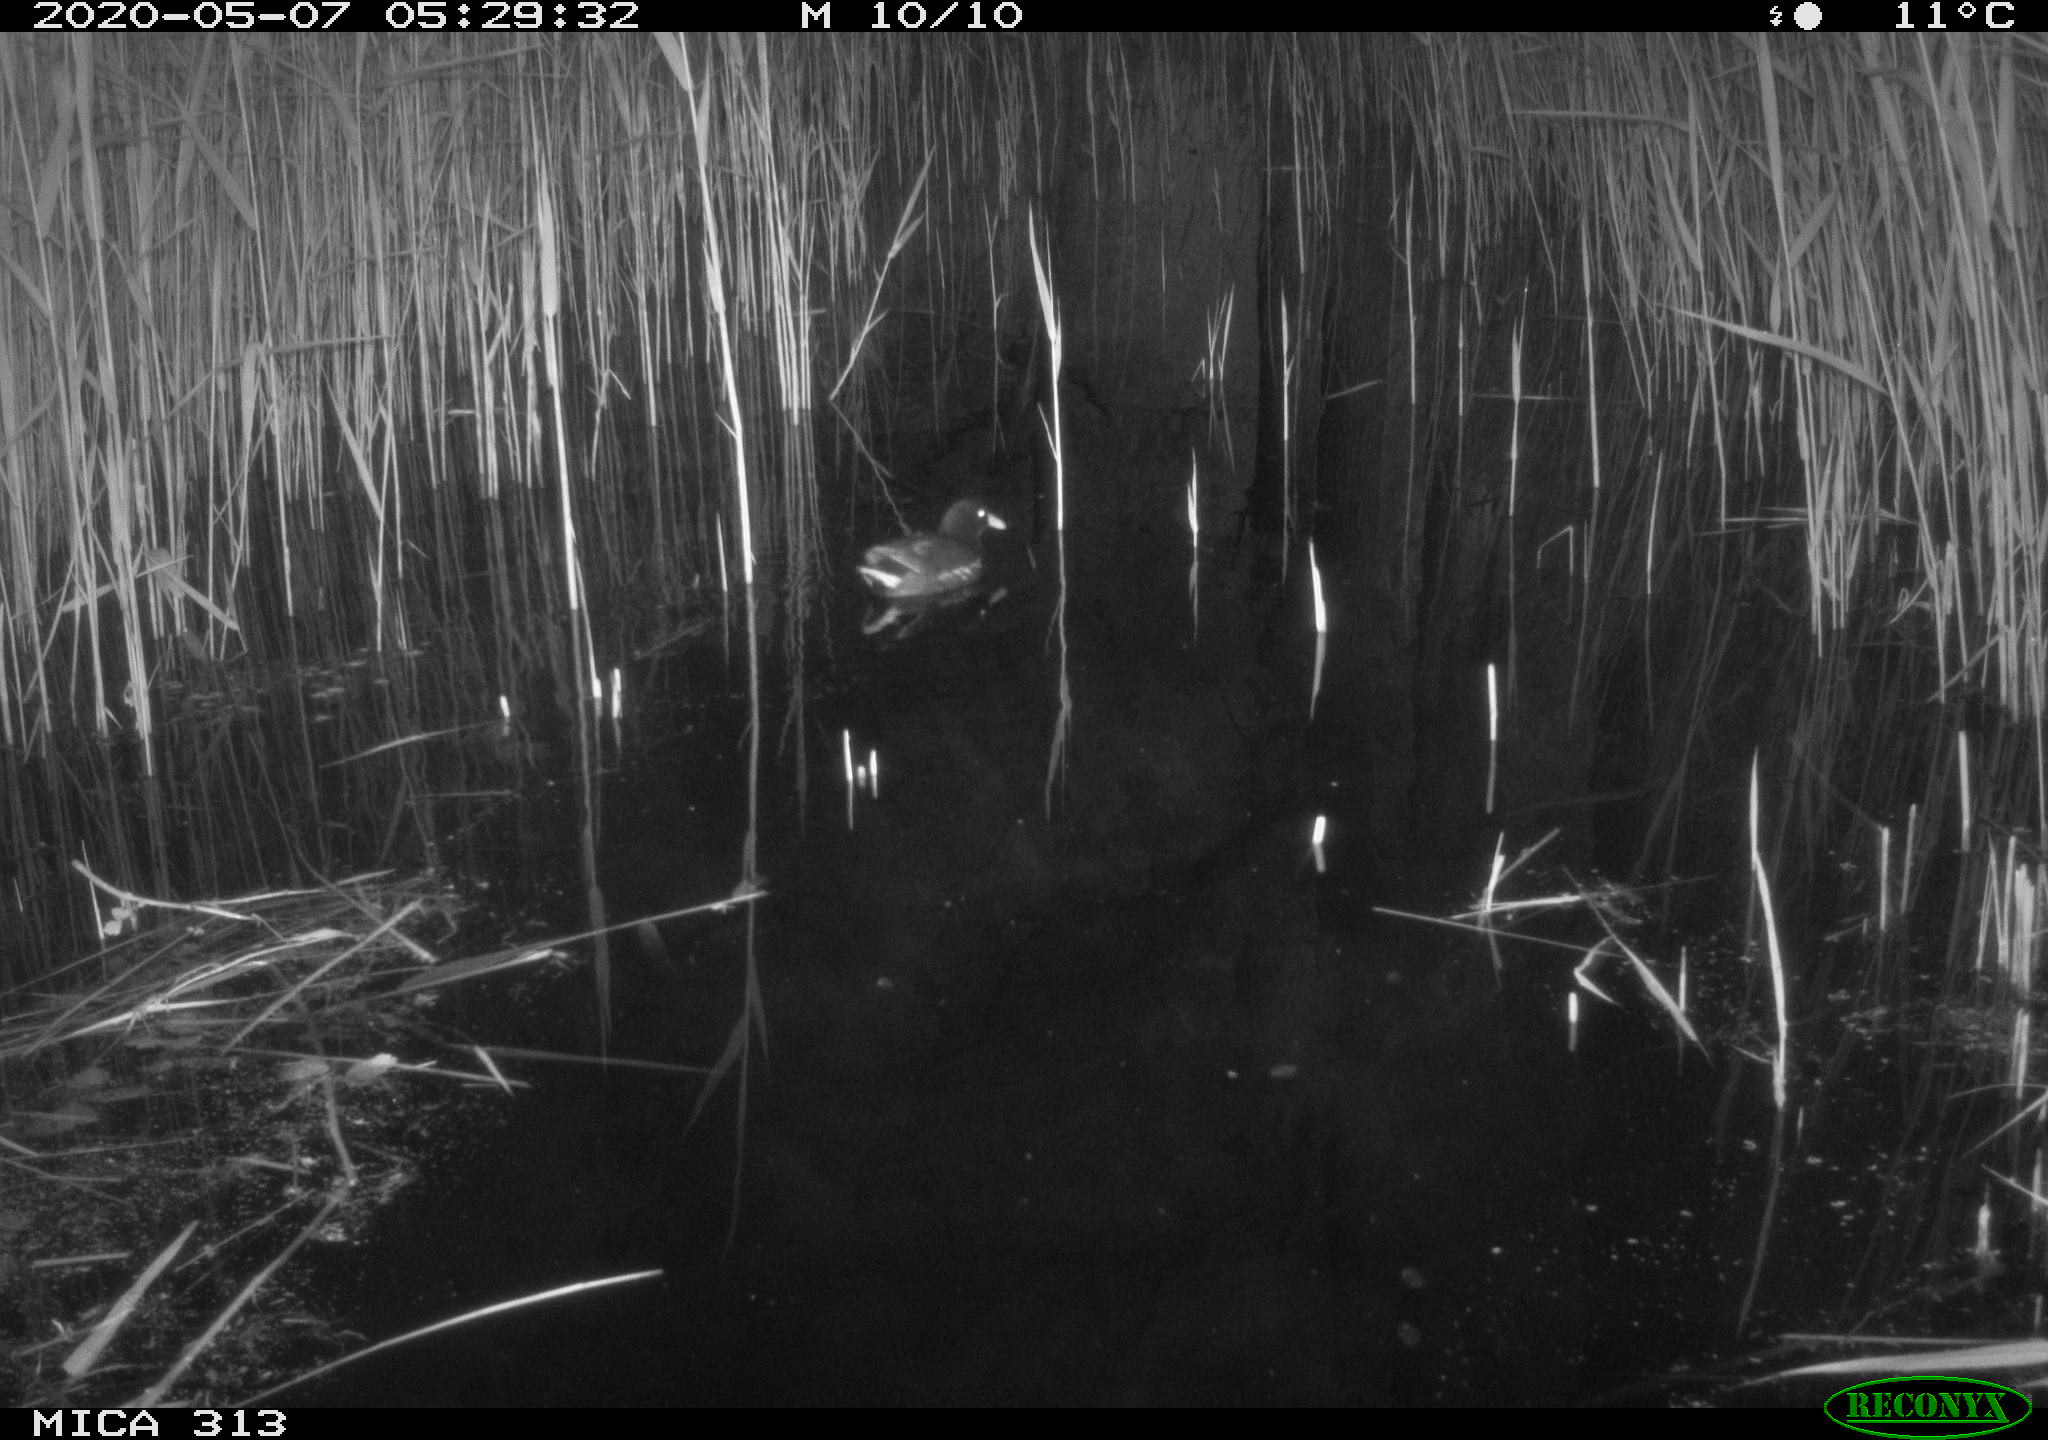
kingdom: Animalia
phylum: Chordata
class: Aves
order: Gruiformes
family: Rallidae
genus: Gallinula
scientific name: Gallinula chloropus
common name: Common moorhen
